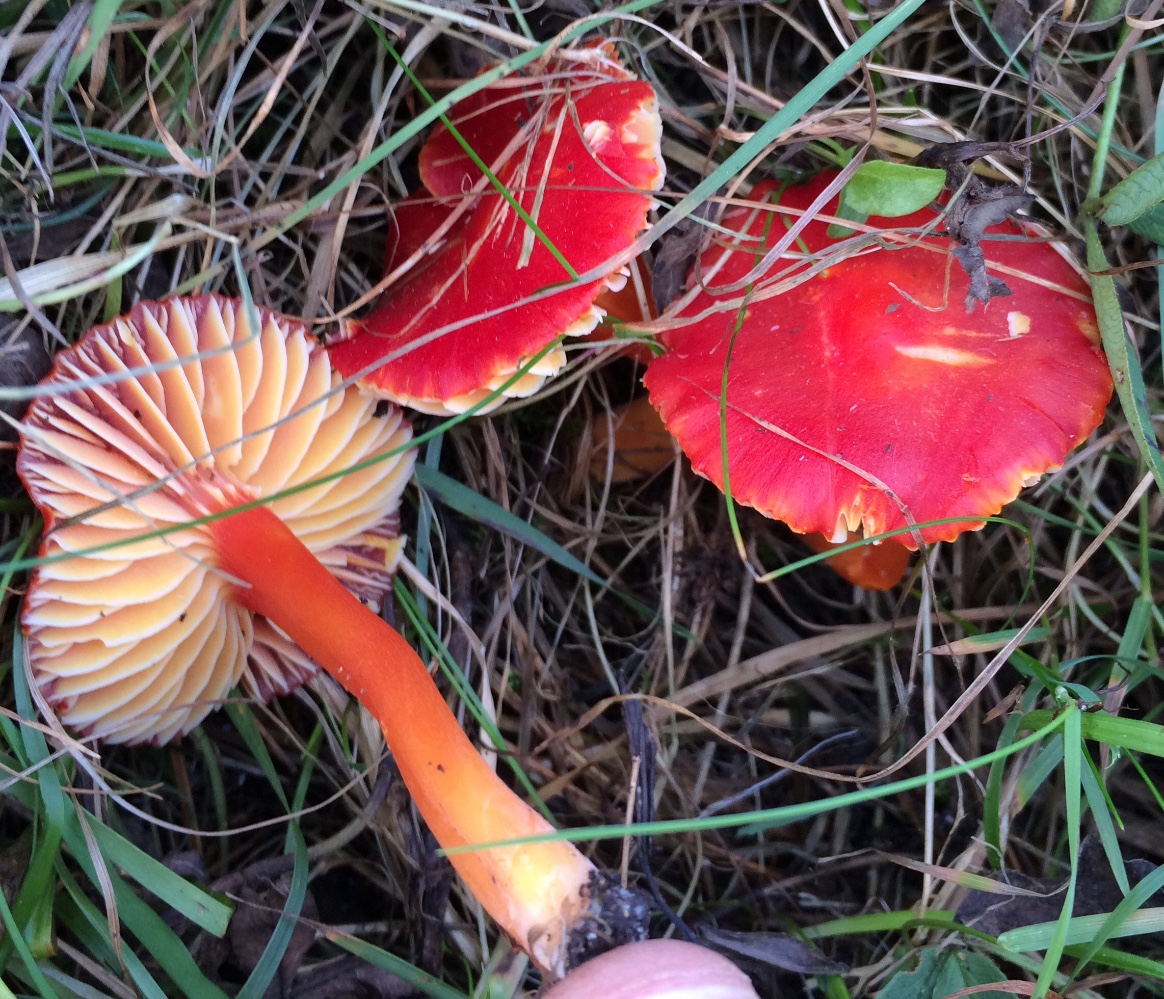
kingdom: Fungi
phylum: Basidiomycota
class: Agaricomycetes
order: Agaricales
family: Hygrophoraceae
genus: Hygrocybe
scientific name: Hygrocybe coccinea
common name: cinnober-vokshat
